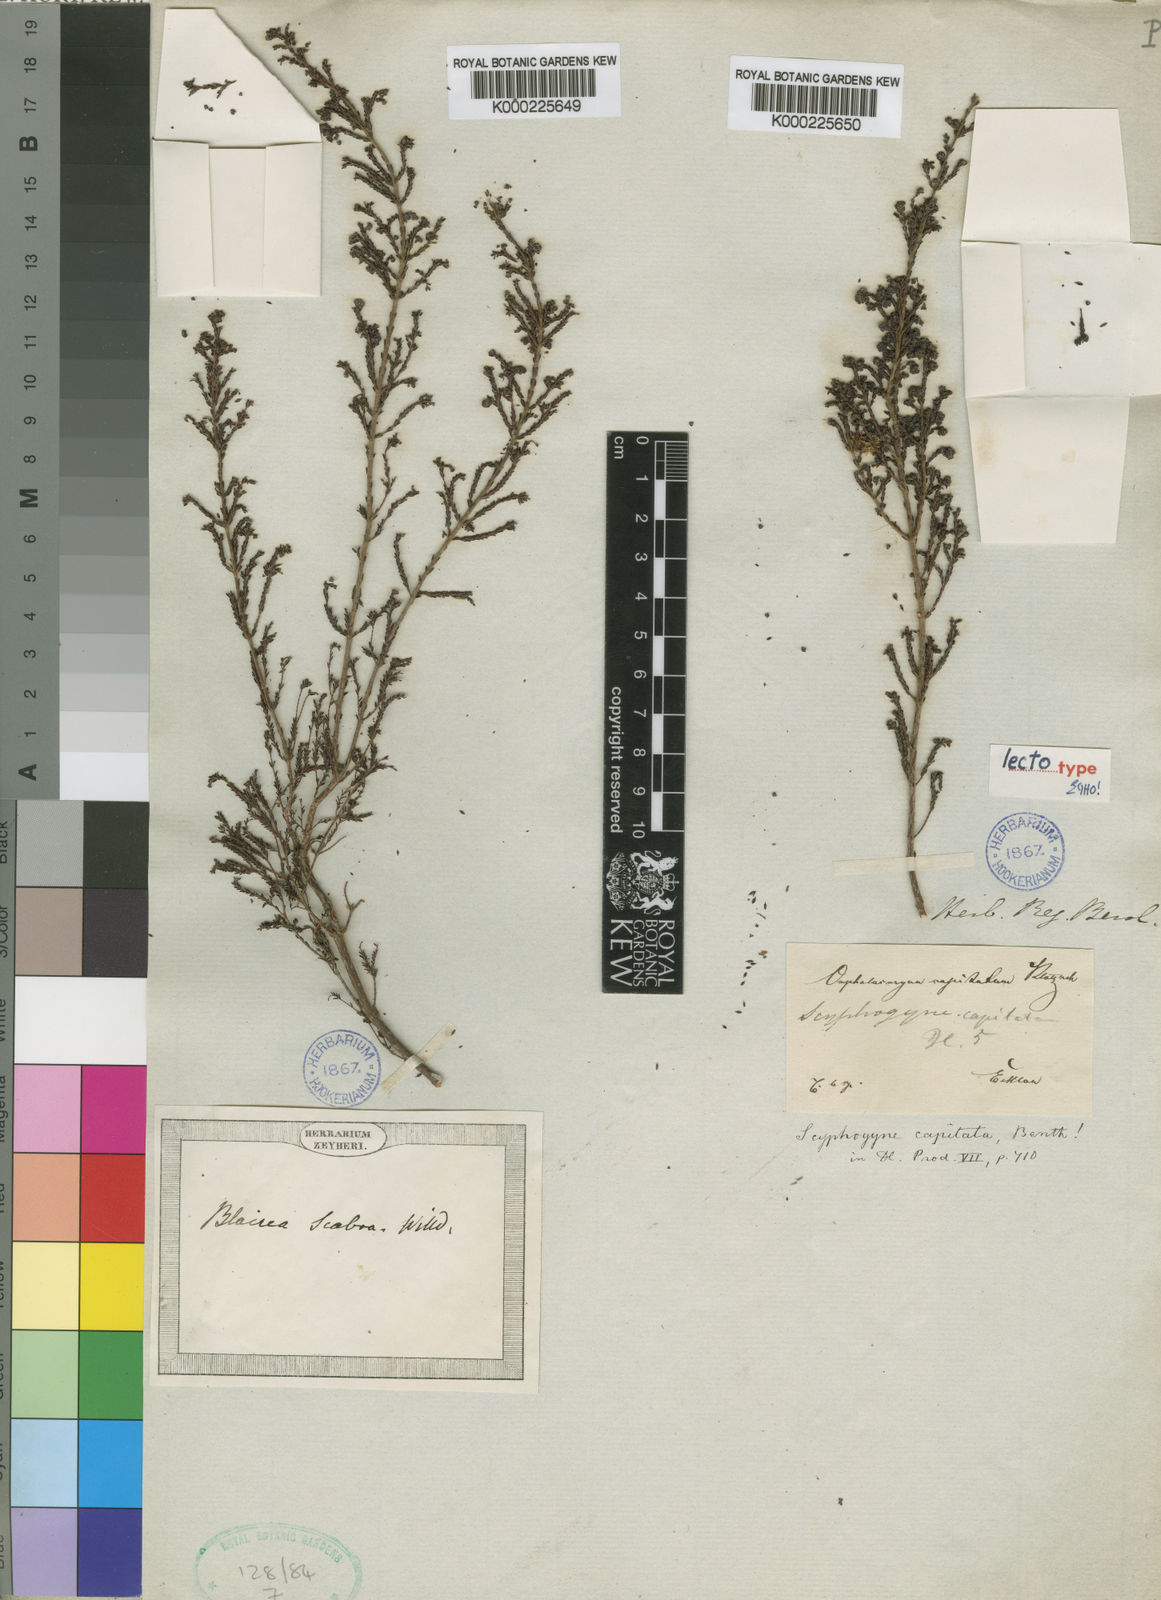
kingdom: Plantae
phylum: Tracheophyta
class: Magnoliopsida
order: Ericales
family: Ericaceae
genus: Erica
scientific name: Erica phacelanthera
